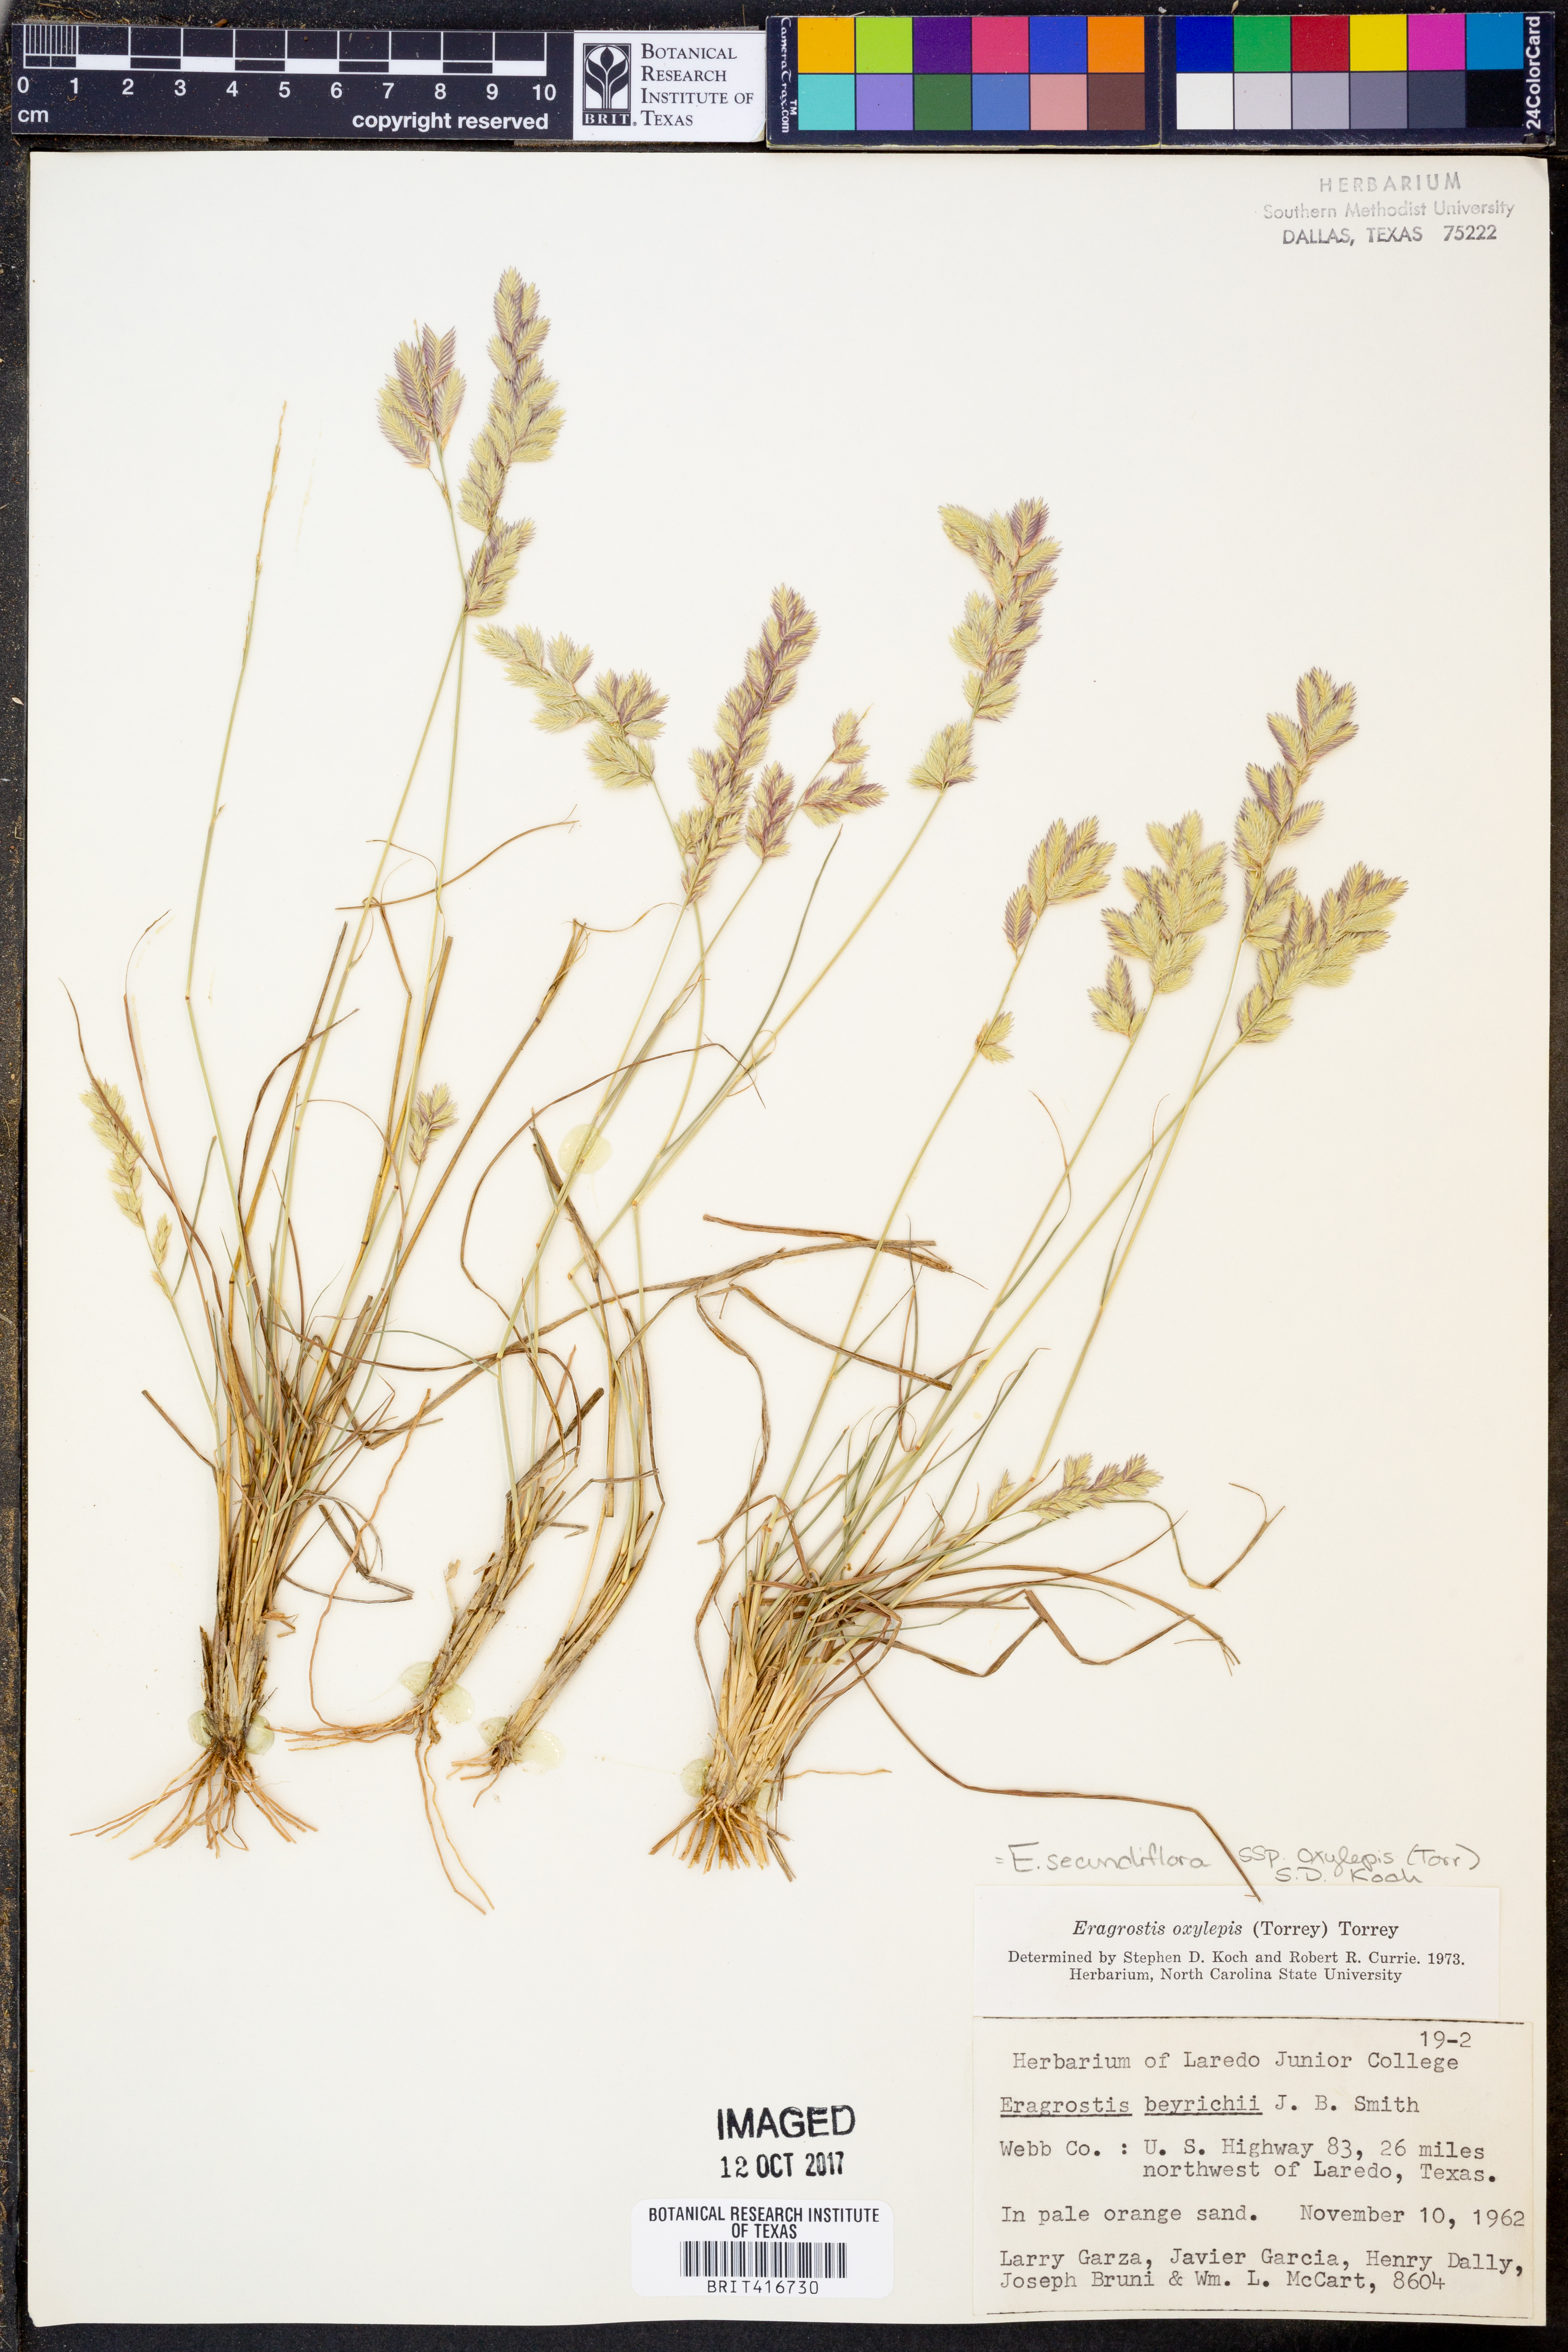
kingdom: Plantae
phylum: Tracheophyta
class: Liliopsida
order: Poales
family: Poaceae
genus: Eragrostis
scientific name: Eragrostis secundiflora
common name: Red love grass
